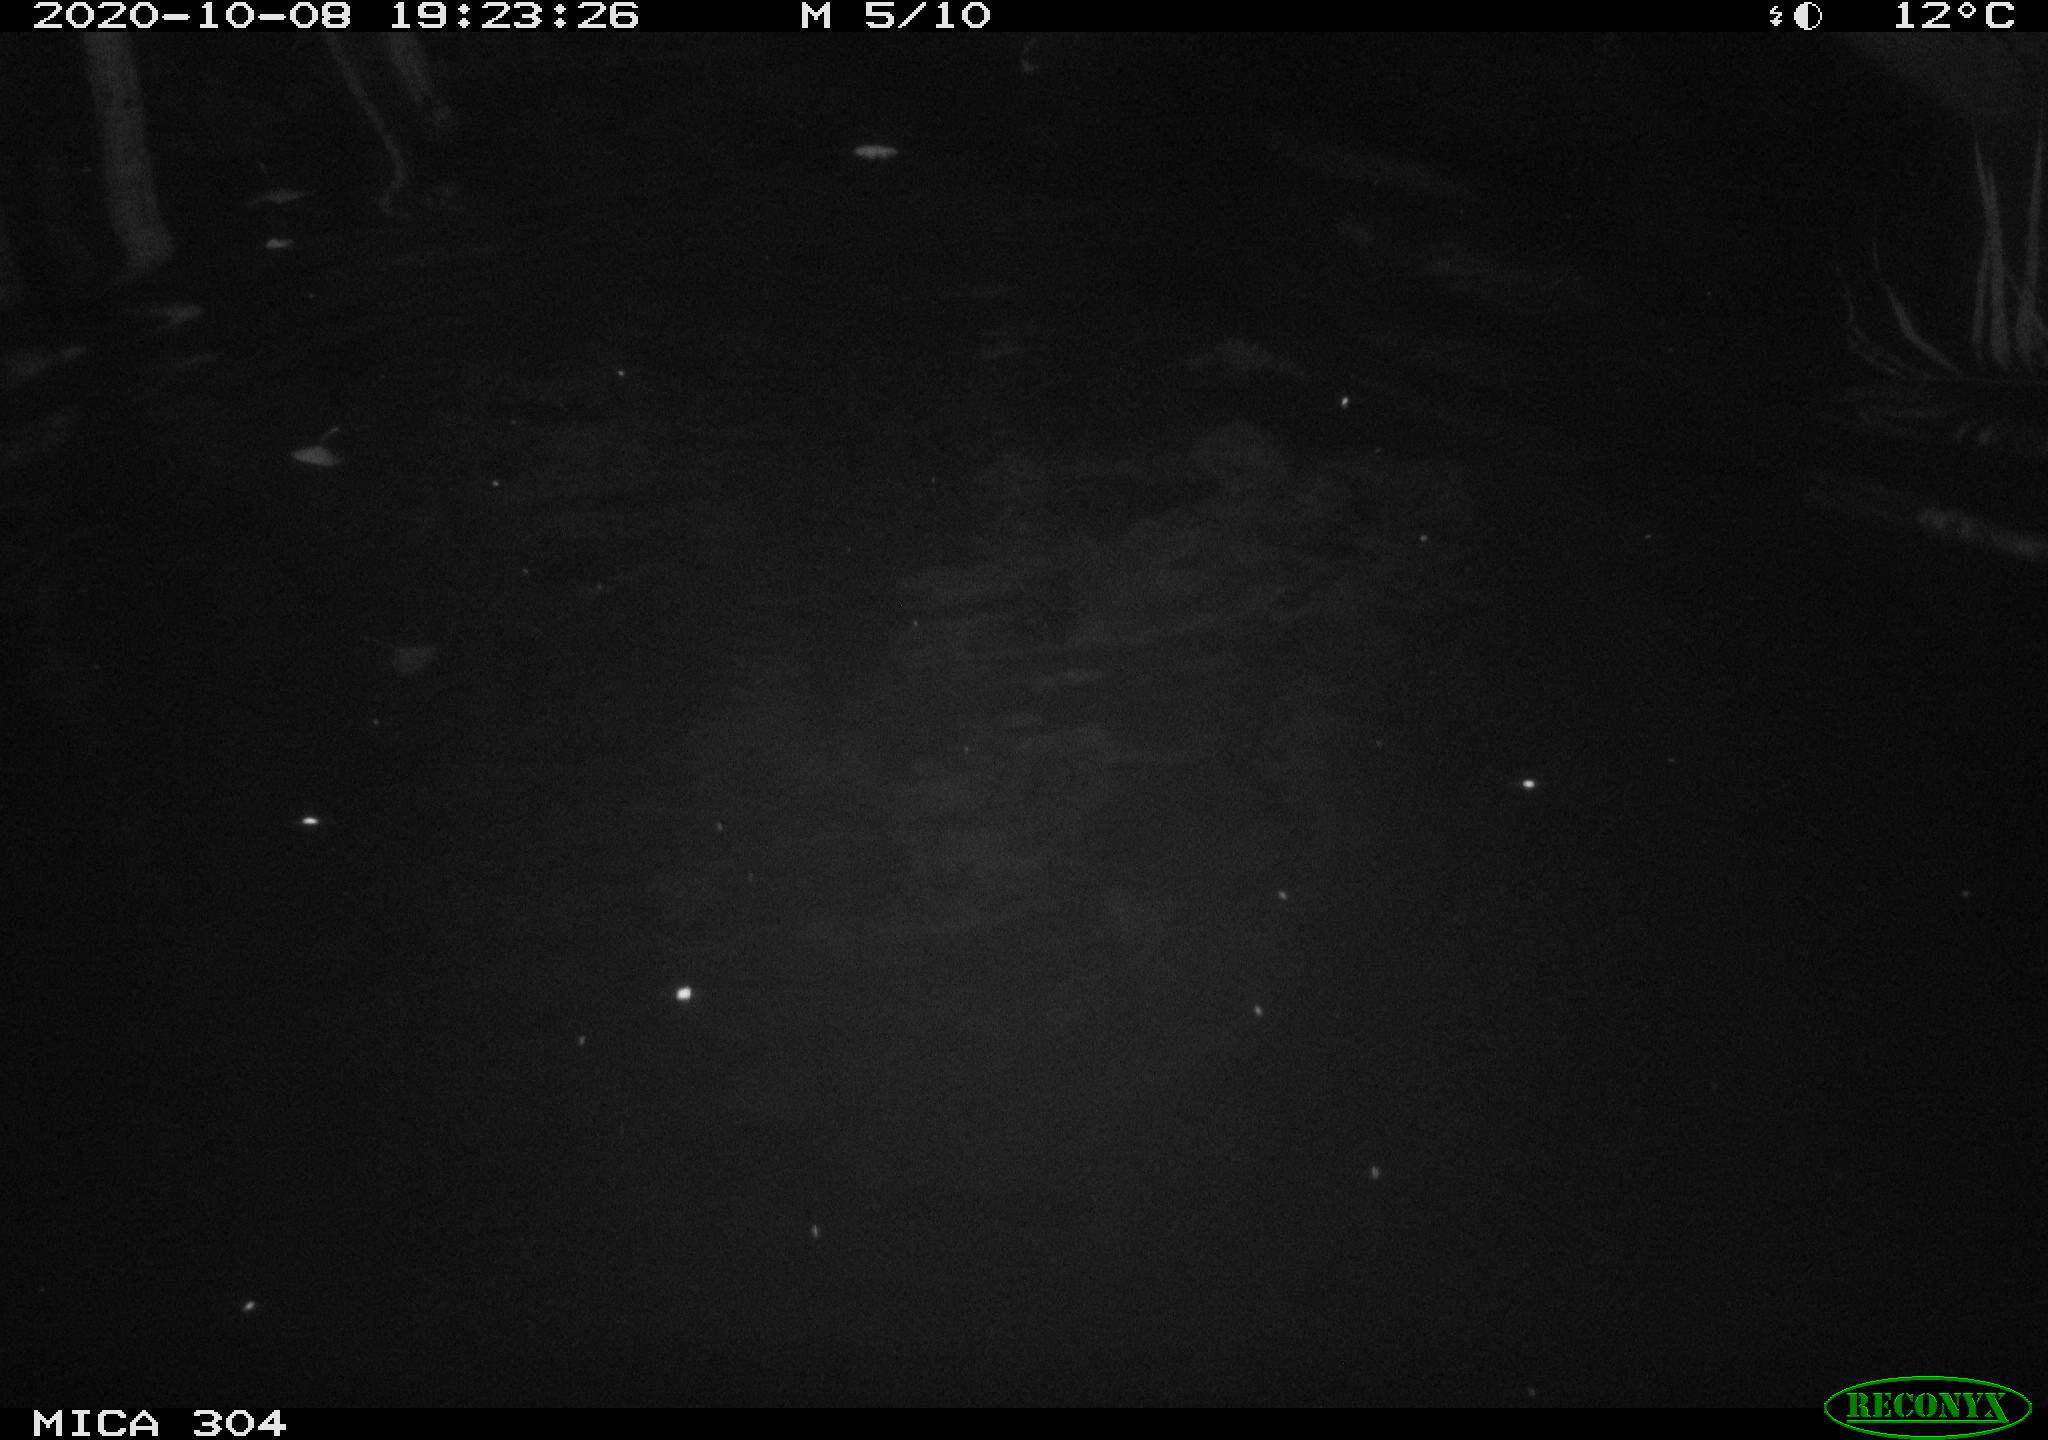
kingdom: Animalia
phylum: Chordata
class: Mammalia
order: Rodentia
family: Cricetidae
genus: Ondatra
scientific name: Ondatra zibethicus
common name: Muskrat
